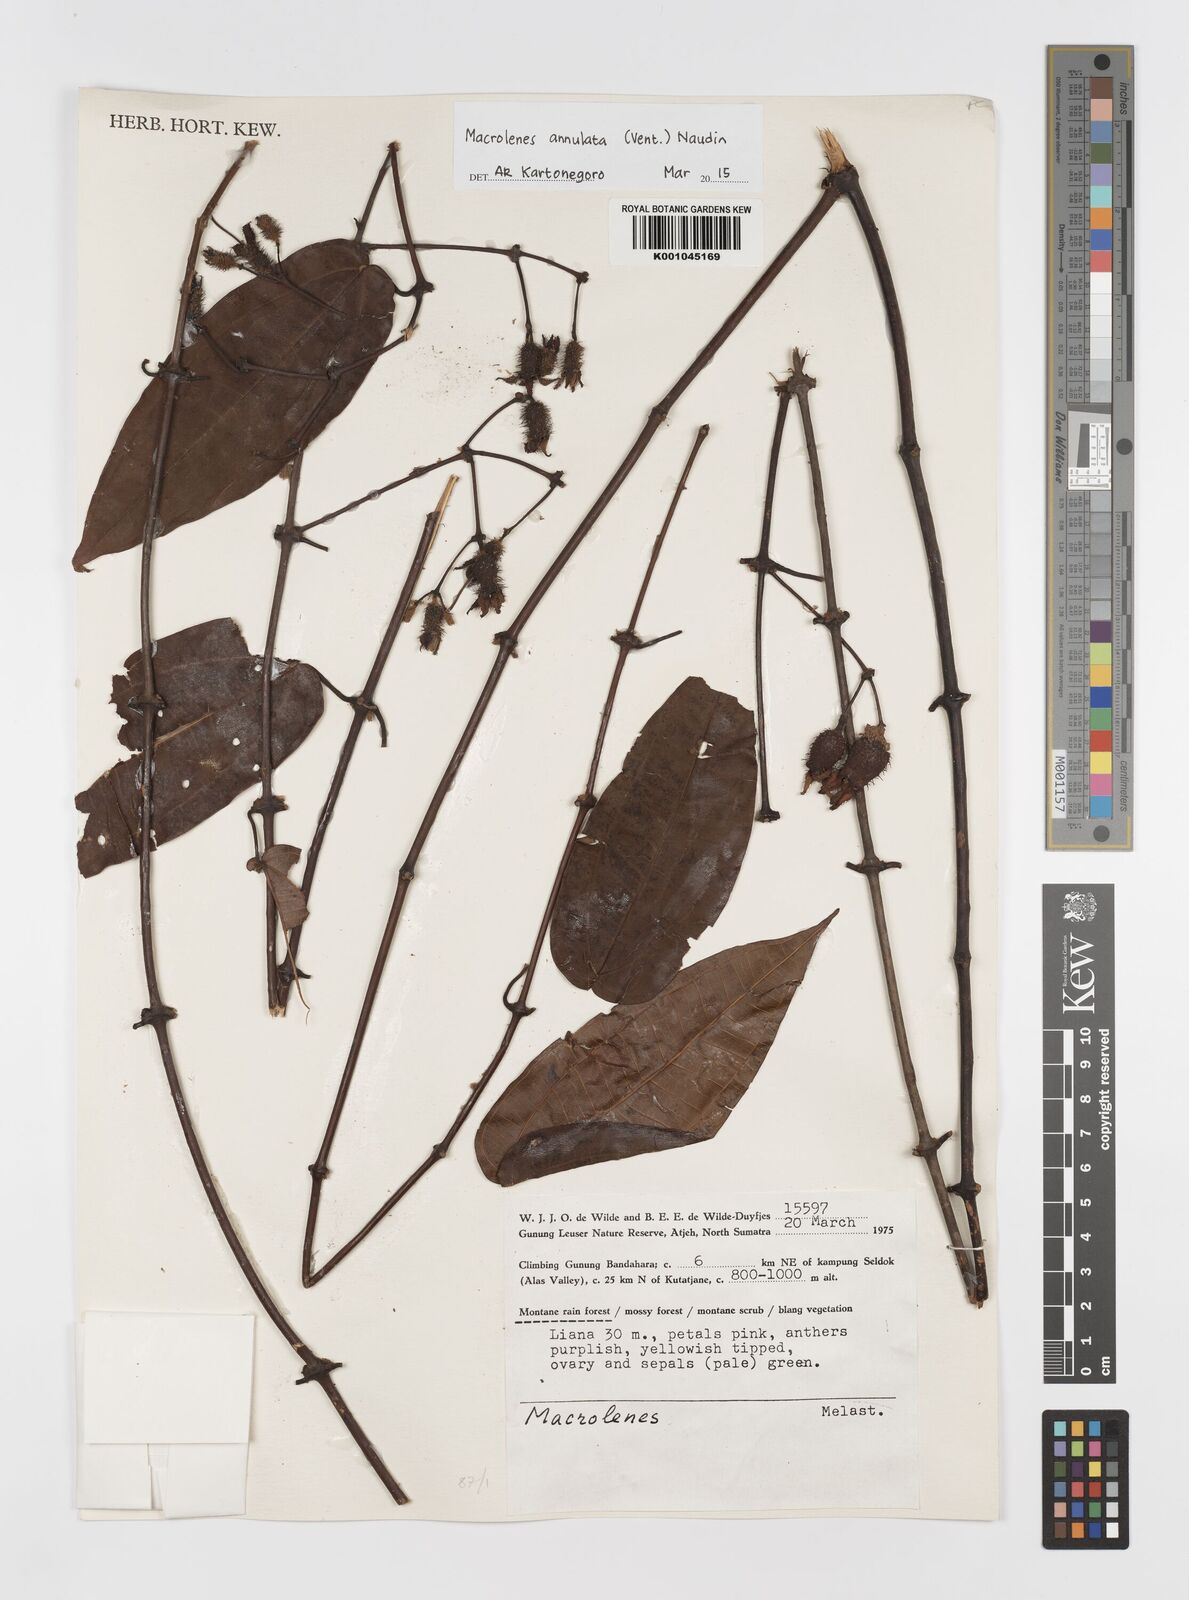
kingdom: Plantae
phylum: Tracheophyta
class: Magnoliopsida
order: Myrtales
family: Melastomataceae
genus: Macrolenes
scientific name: Macrolenes annulata
